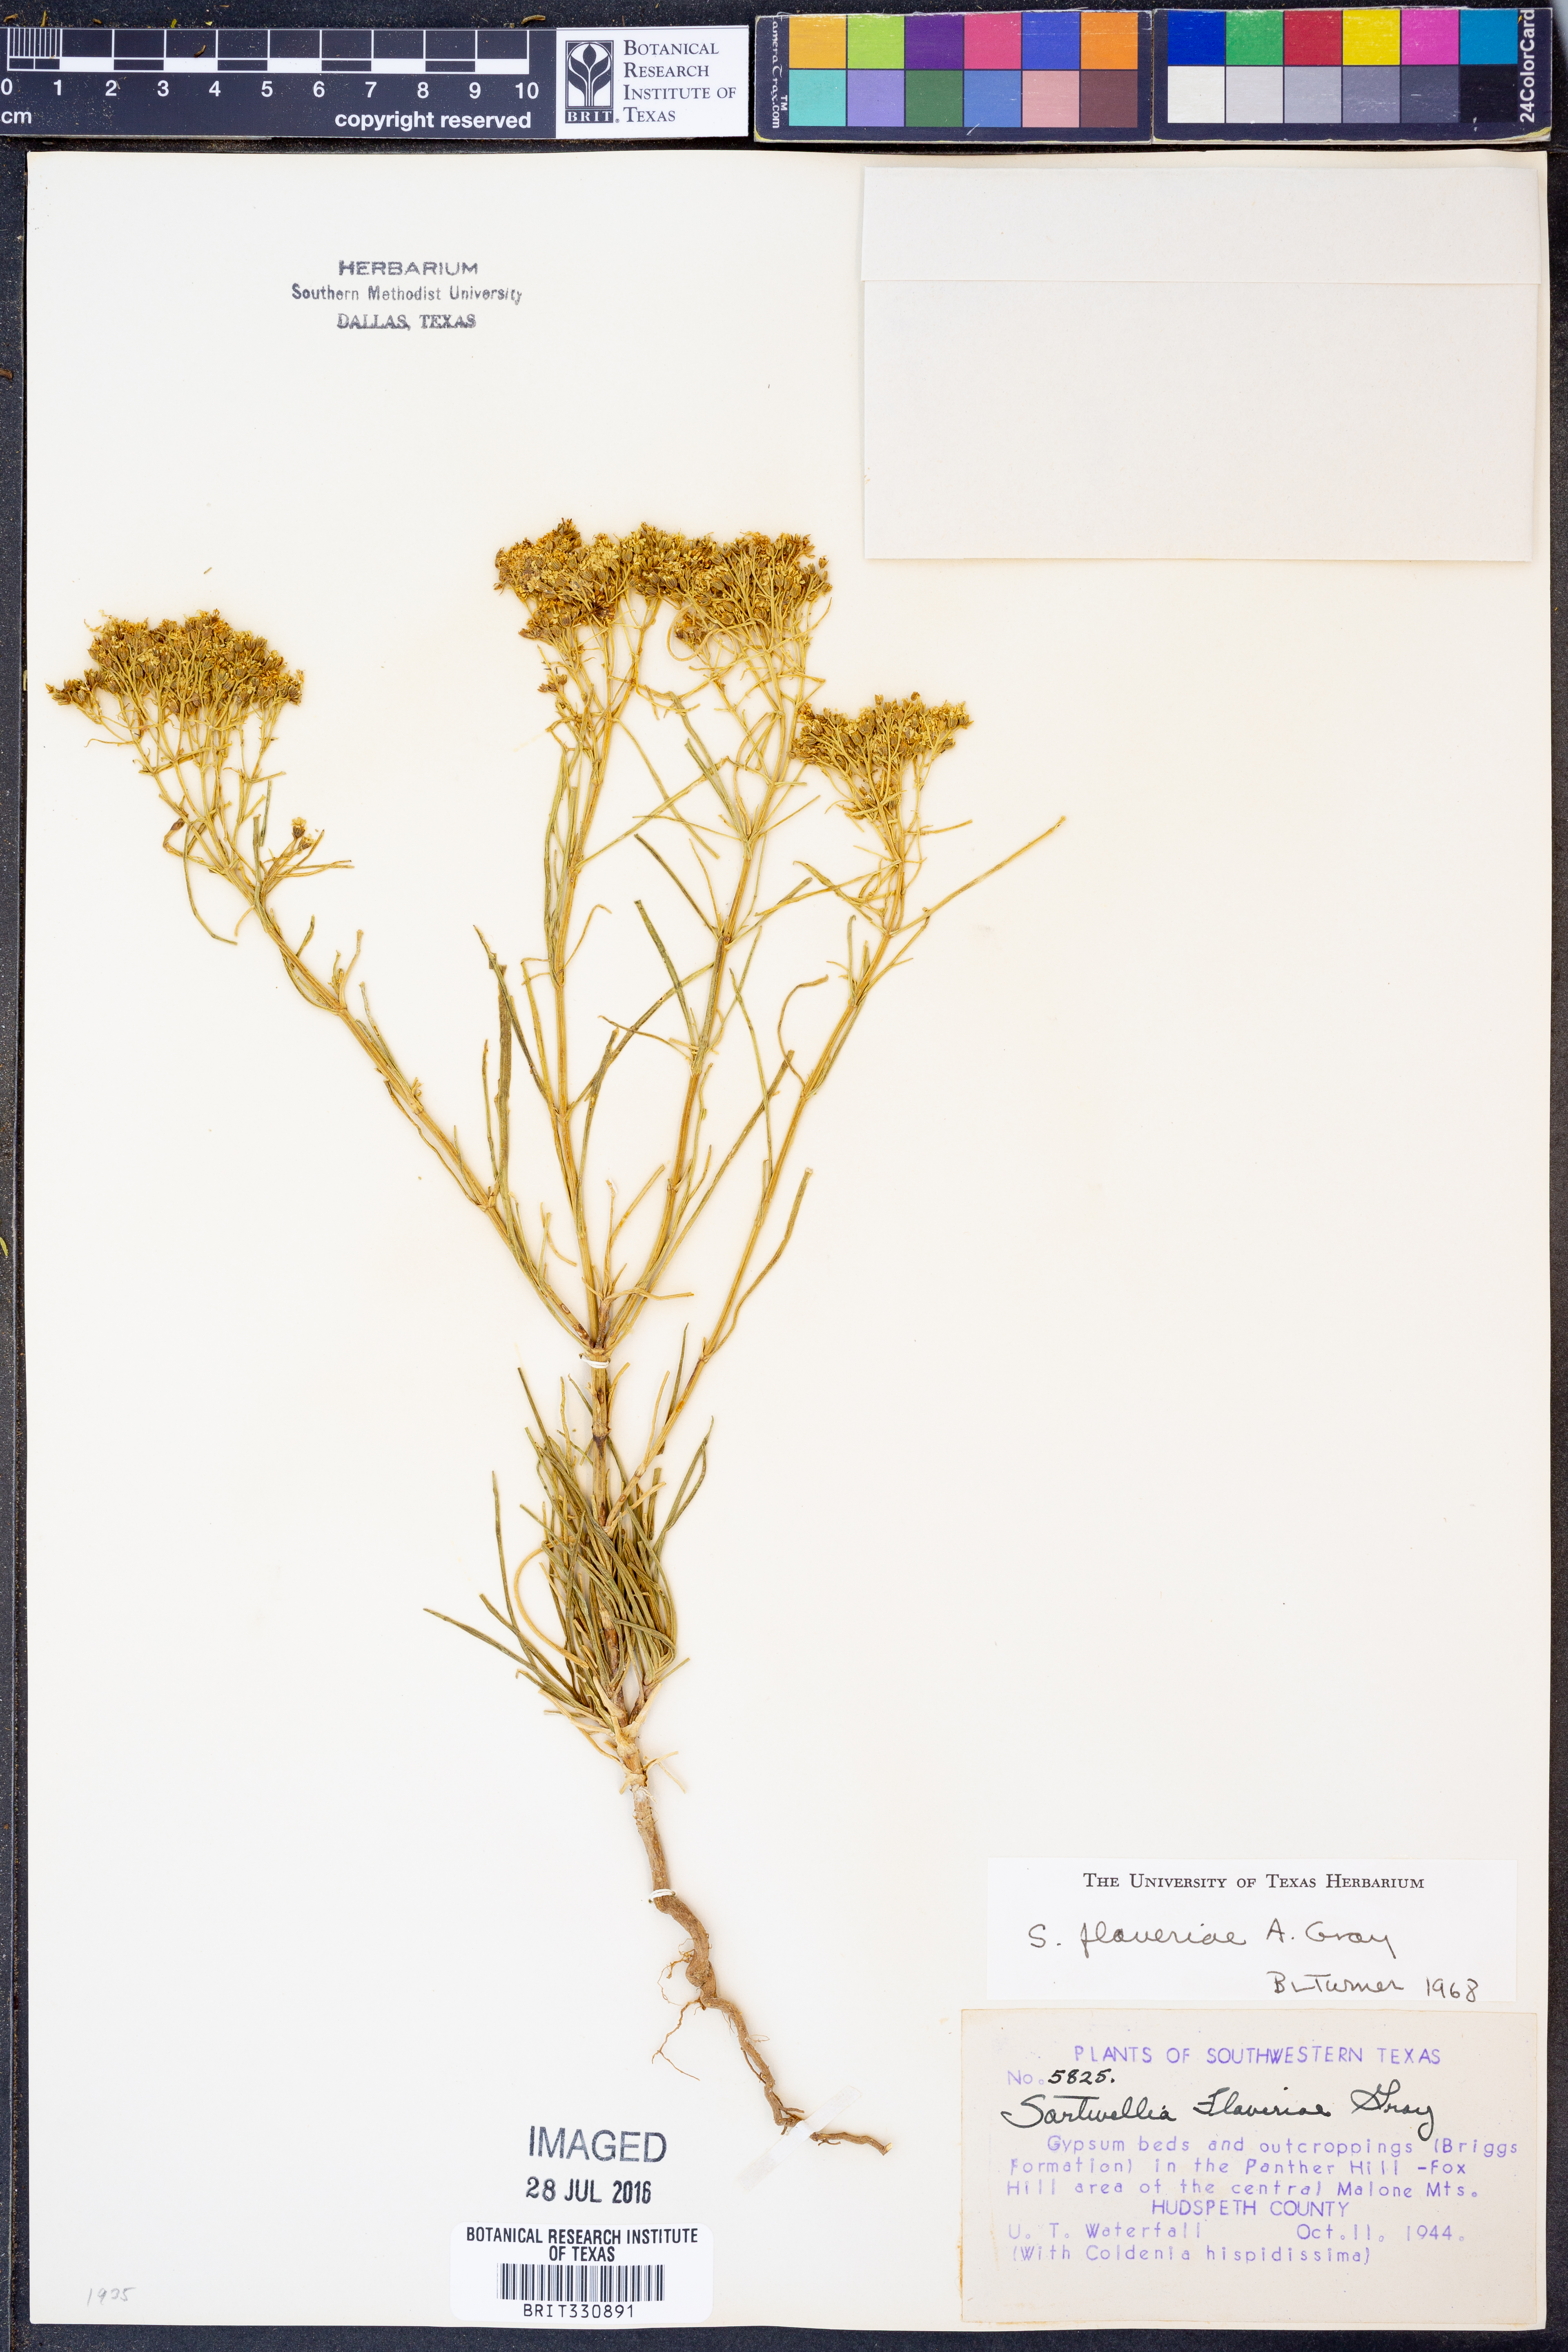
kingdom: Plantae
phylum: Tracheophyta
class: Magnoliopsida
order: Asterales
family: Asteraceae
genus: Sartwellia
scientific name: Sartwellia flaveriae
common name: Sartwellia
